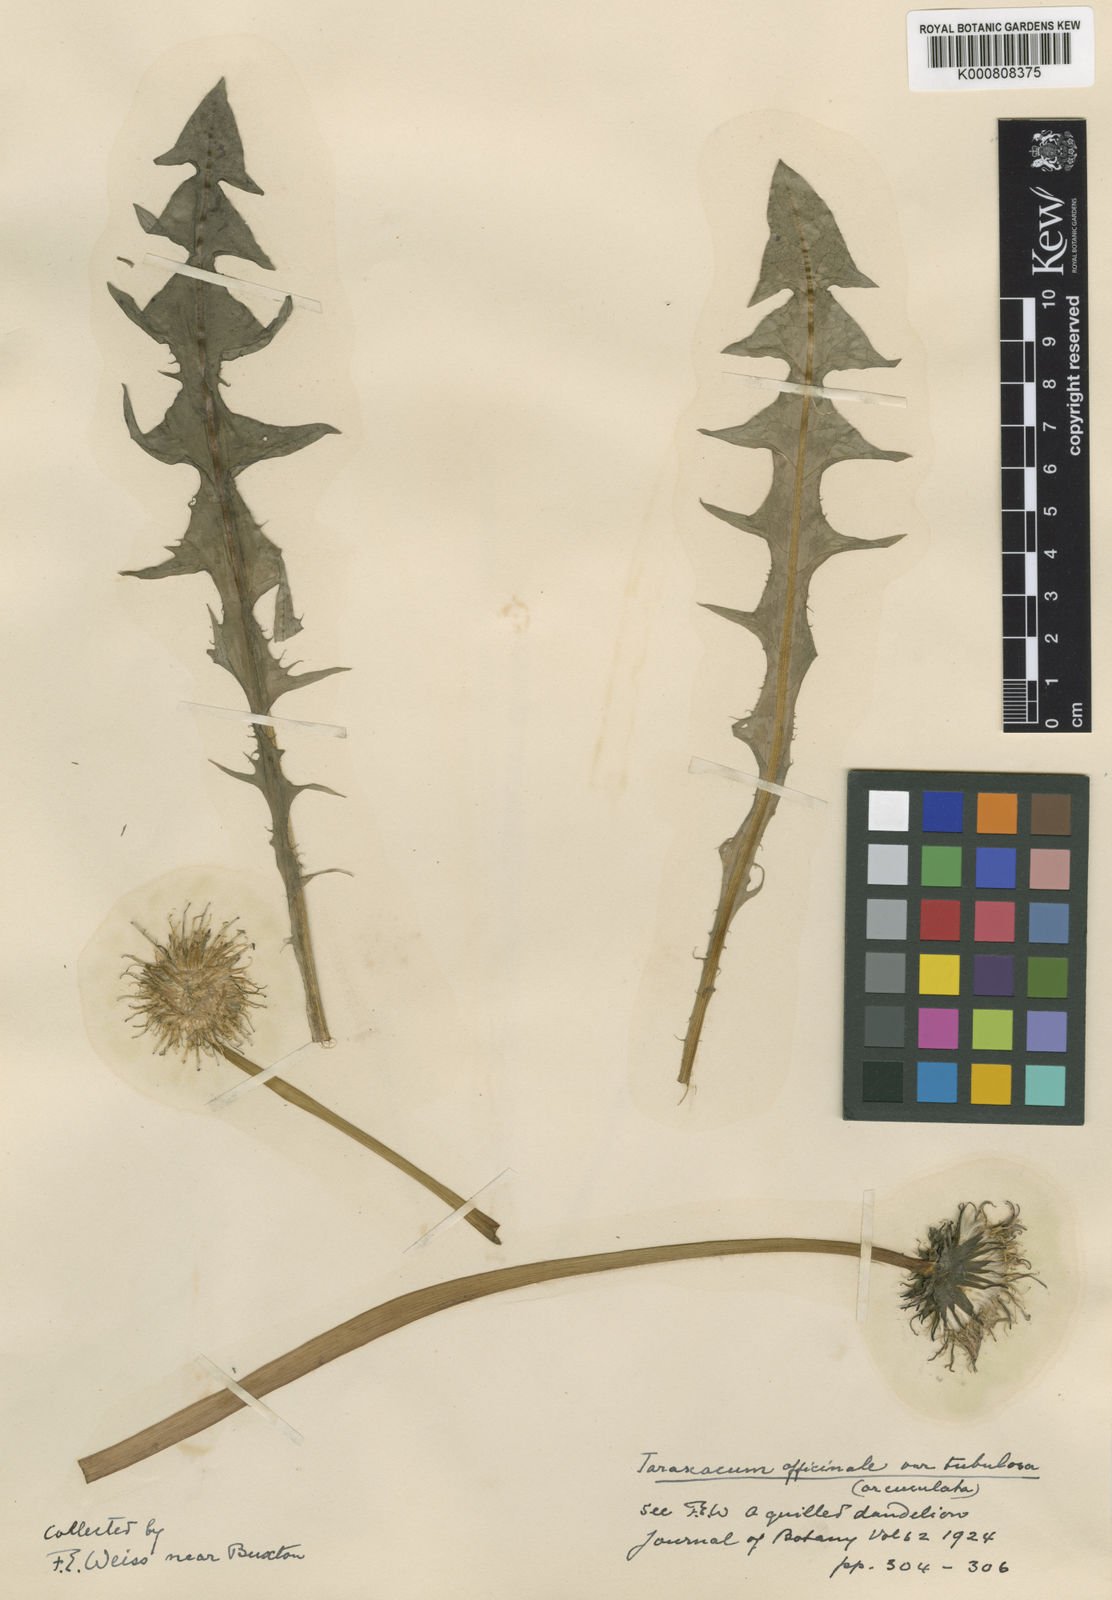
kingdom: Plantae
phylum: Tracheophyta
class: Magnoliopsida
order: Asterales
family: Asteraceae
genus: Taraxacum
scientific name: Taraxacum officinale
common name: Common dandelion
